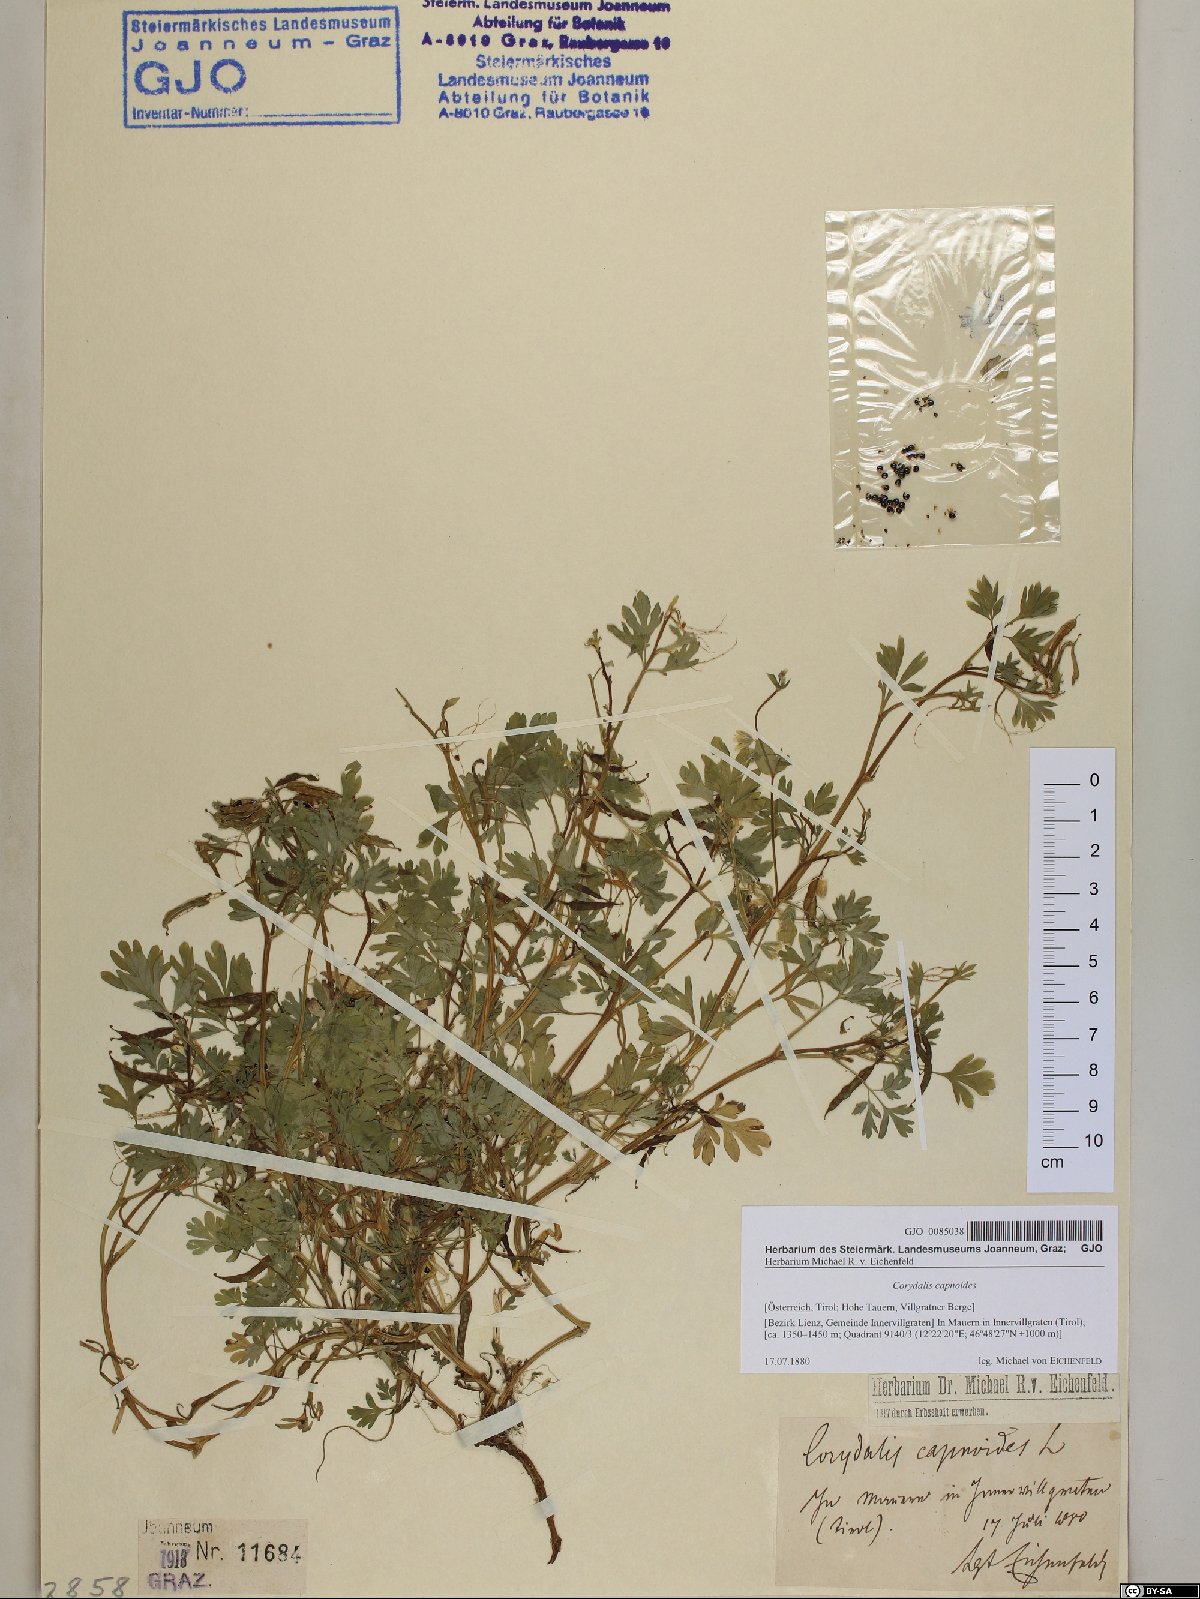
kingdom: Plantae
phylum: Tracheophyta
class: Magnoliopsida
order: Ranunculales
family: Papaveraceae
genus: Corydalis
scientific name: Corydalis capnoides
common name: Beaked corydalis
